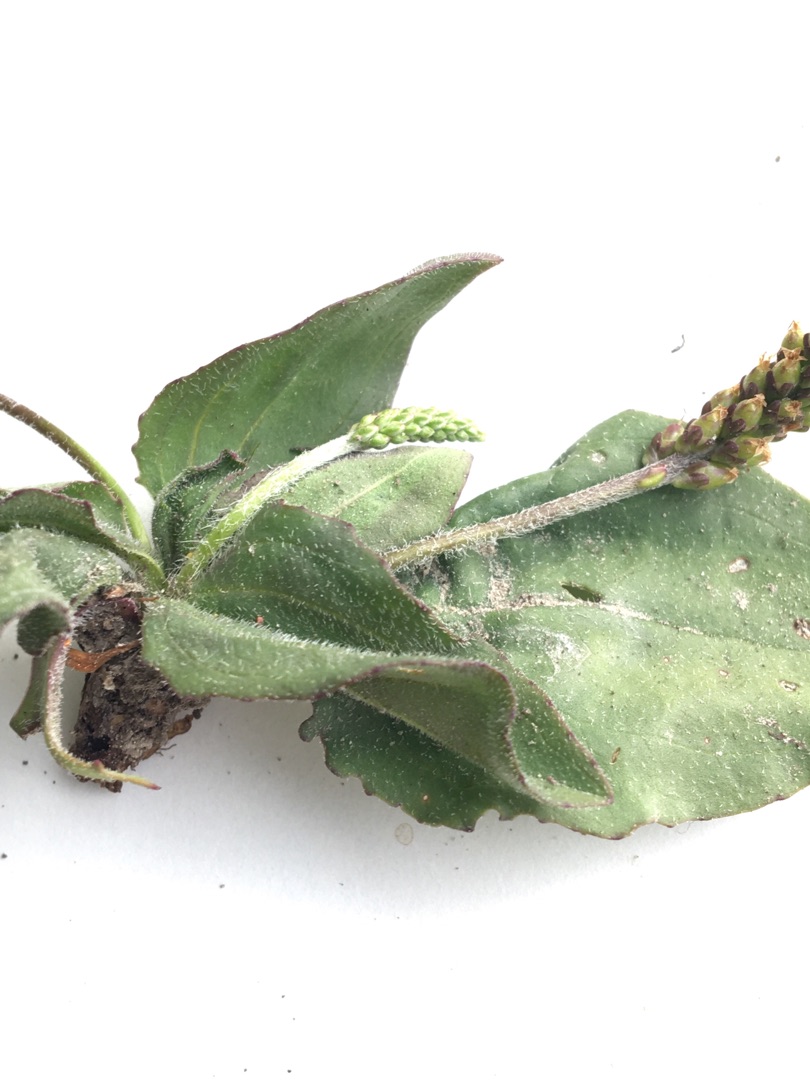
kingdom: Plantae
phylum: Tracheophyta
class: Magnoliopsida
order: Lamiales
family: Plantaginaceae
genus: Plantago
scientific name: Plantago uliginosa
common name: Ager-vejbred
